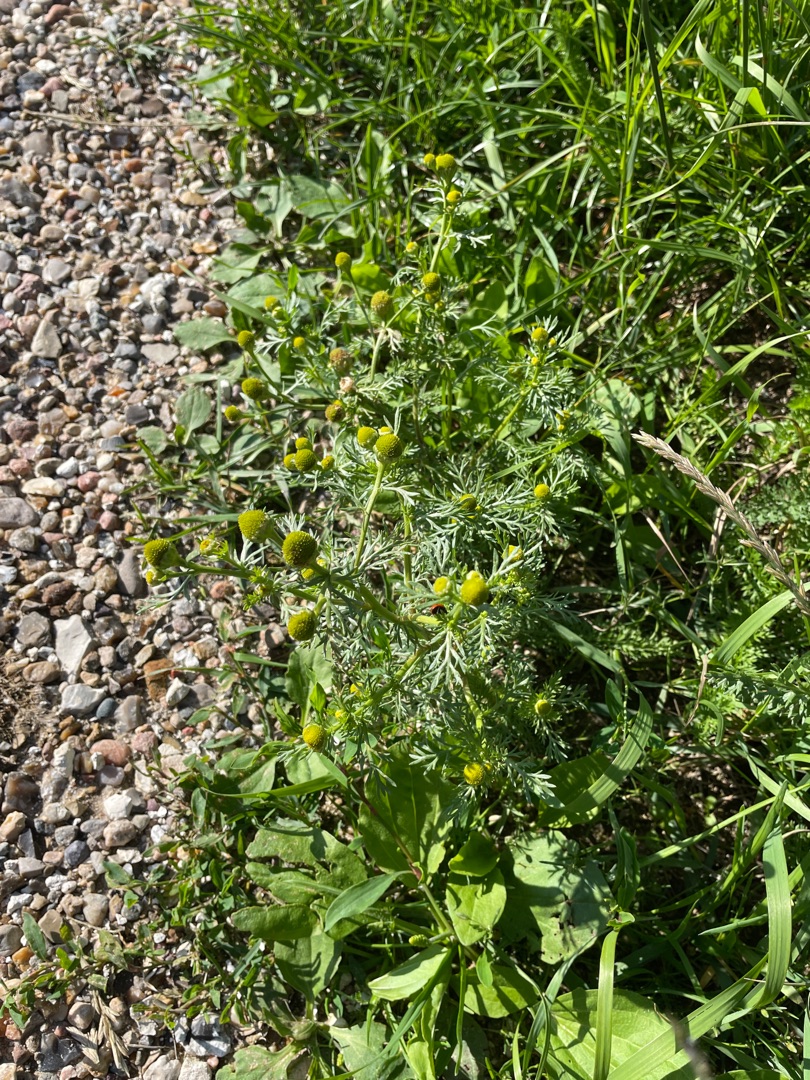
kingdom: Plantae
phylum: Tracheophyta
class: Magnoliopsida
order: Asterales
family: Asteraceae
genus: Matricaria
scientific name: Matricaria discoidea
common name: Skive-kamille
